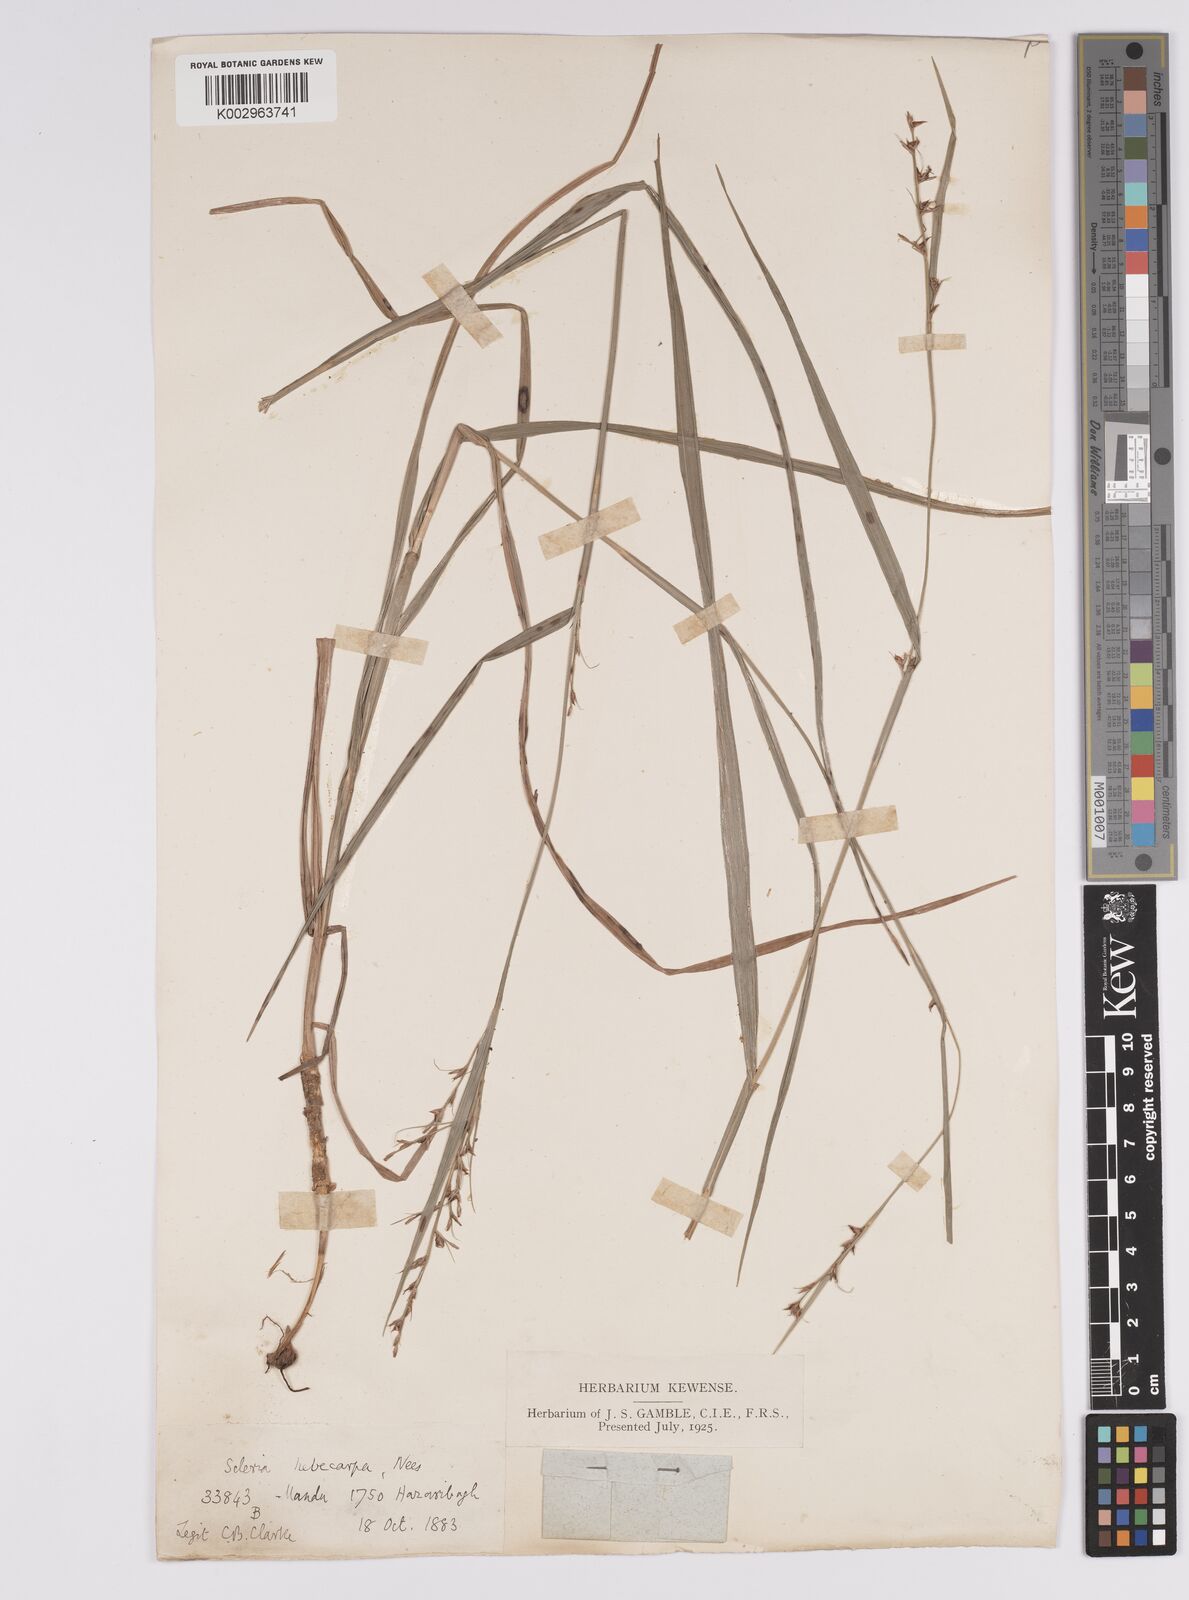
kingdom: Plantae
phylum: Tracheophyta
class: Liliopsida
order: Poales
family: Cyperaceae
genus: Scleria
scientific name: Scleria levis
